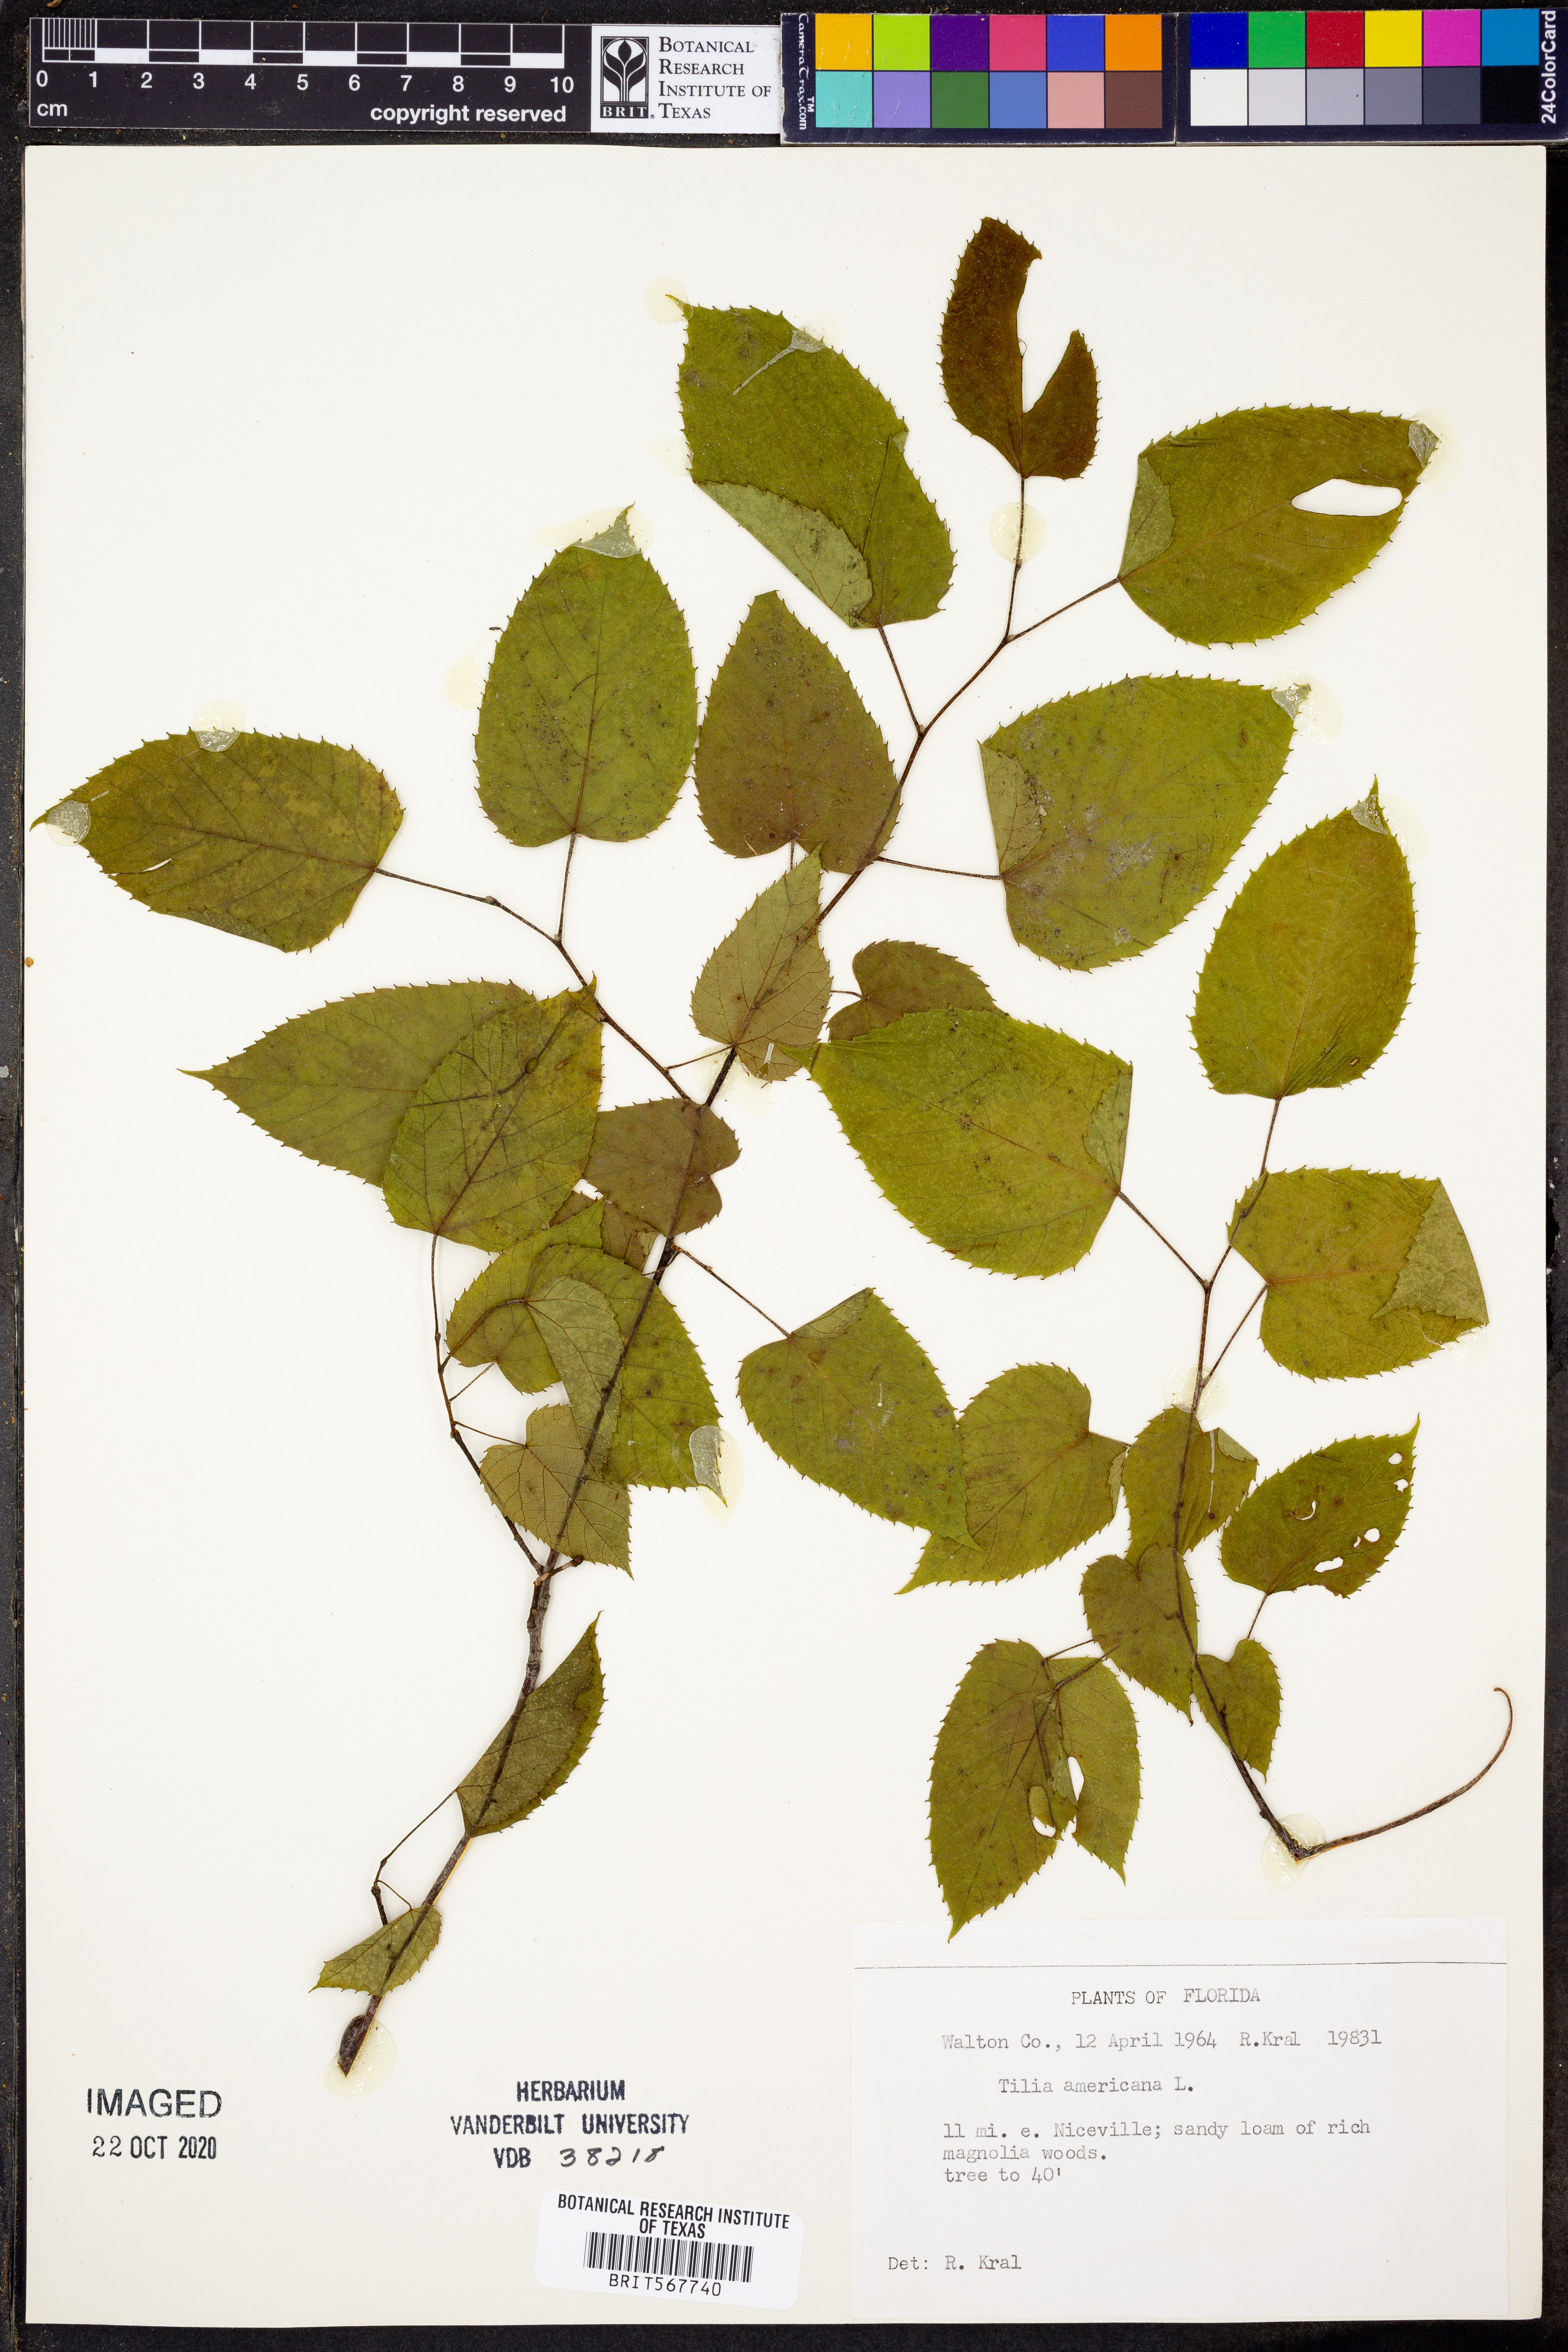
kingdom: Plantae
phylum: Tracheophyta
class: Magnoliopsida
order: Malvales
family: Malvaceae
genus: Tilia
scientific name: Tilia americana
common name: Basswood
